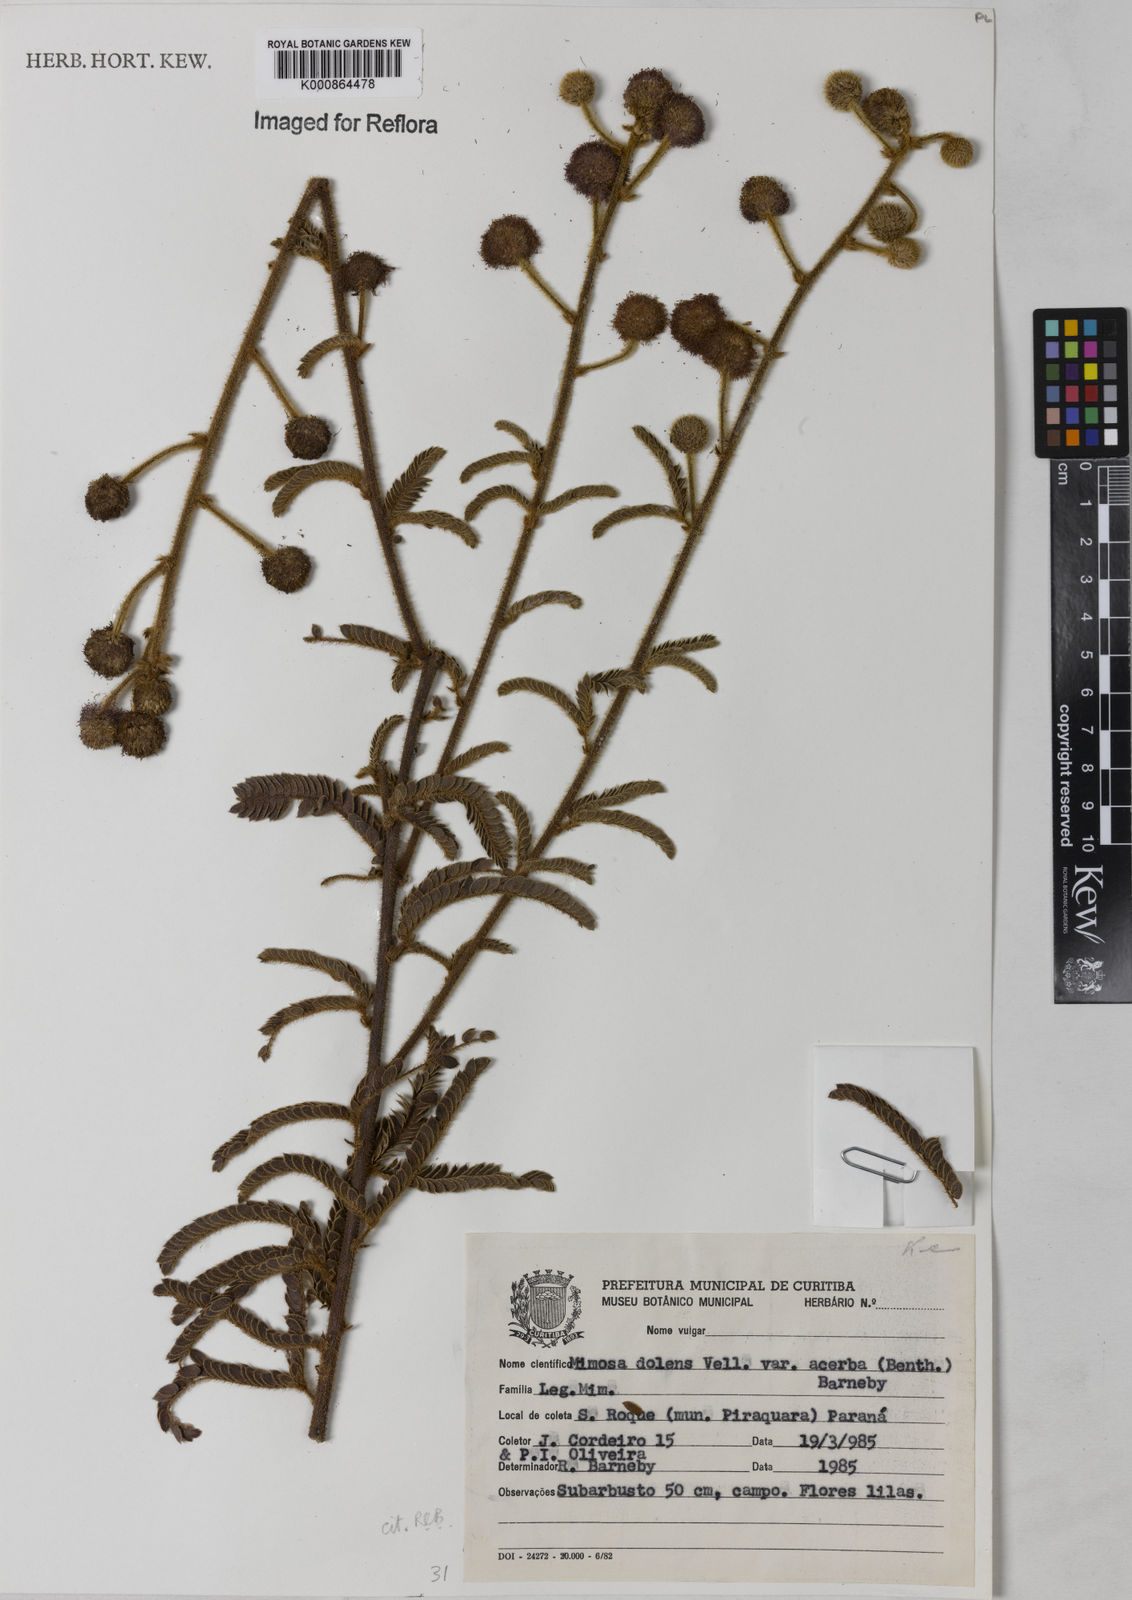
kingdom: Plantae
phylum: Tracheophyta
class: Magnoliopsida
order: Fabales
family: Fabaceae
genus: Mimosa
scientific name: Mimosa dolens
